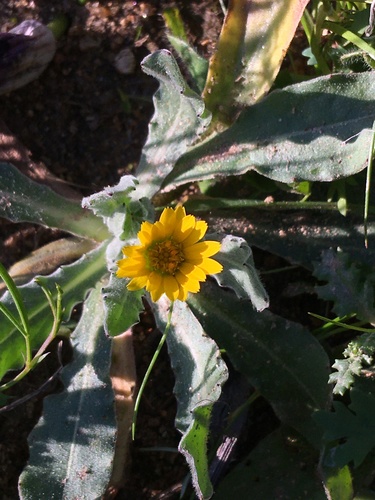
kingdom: Plantae
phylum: Tracheophyta
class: Magnoliopsida
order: Asterales
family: Asteraceae
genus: Calendula
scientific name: Calendula arvensis
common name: Field marigold
